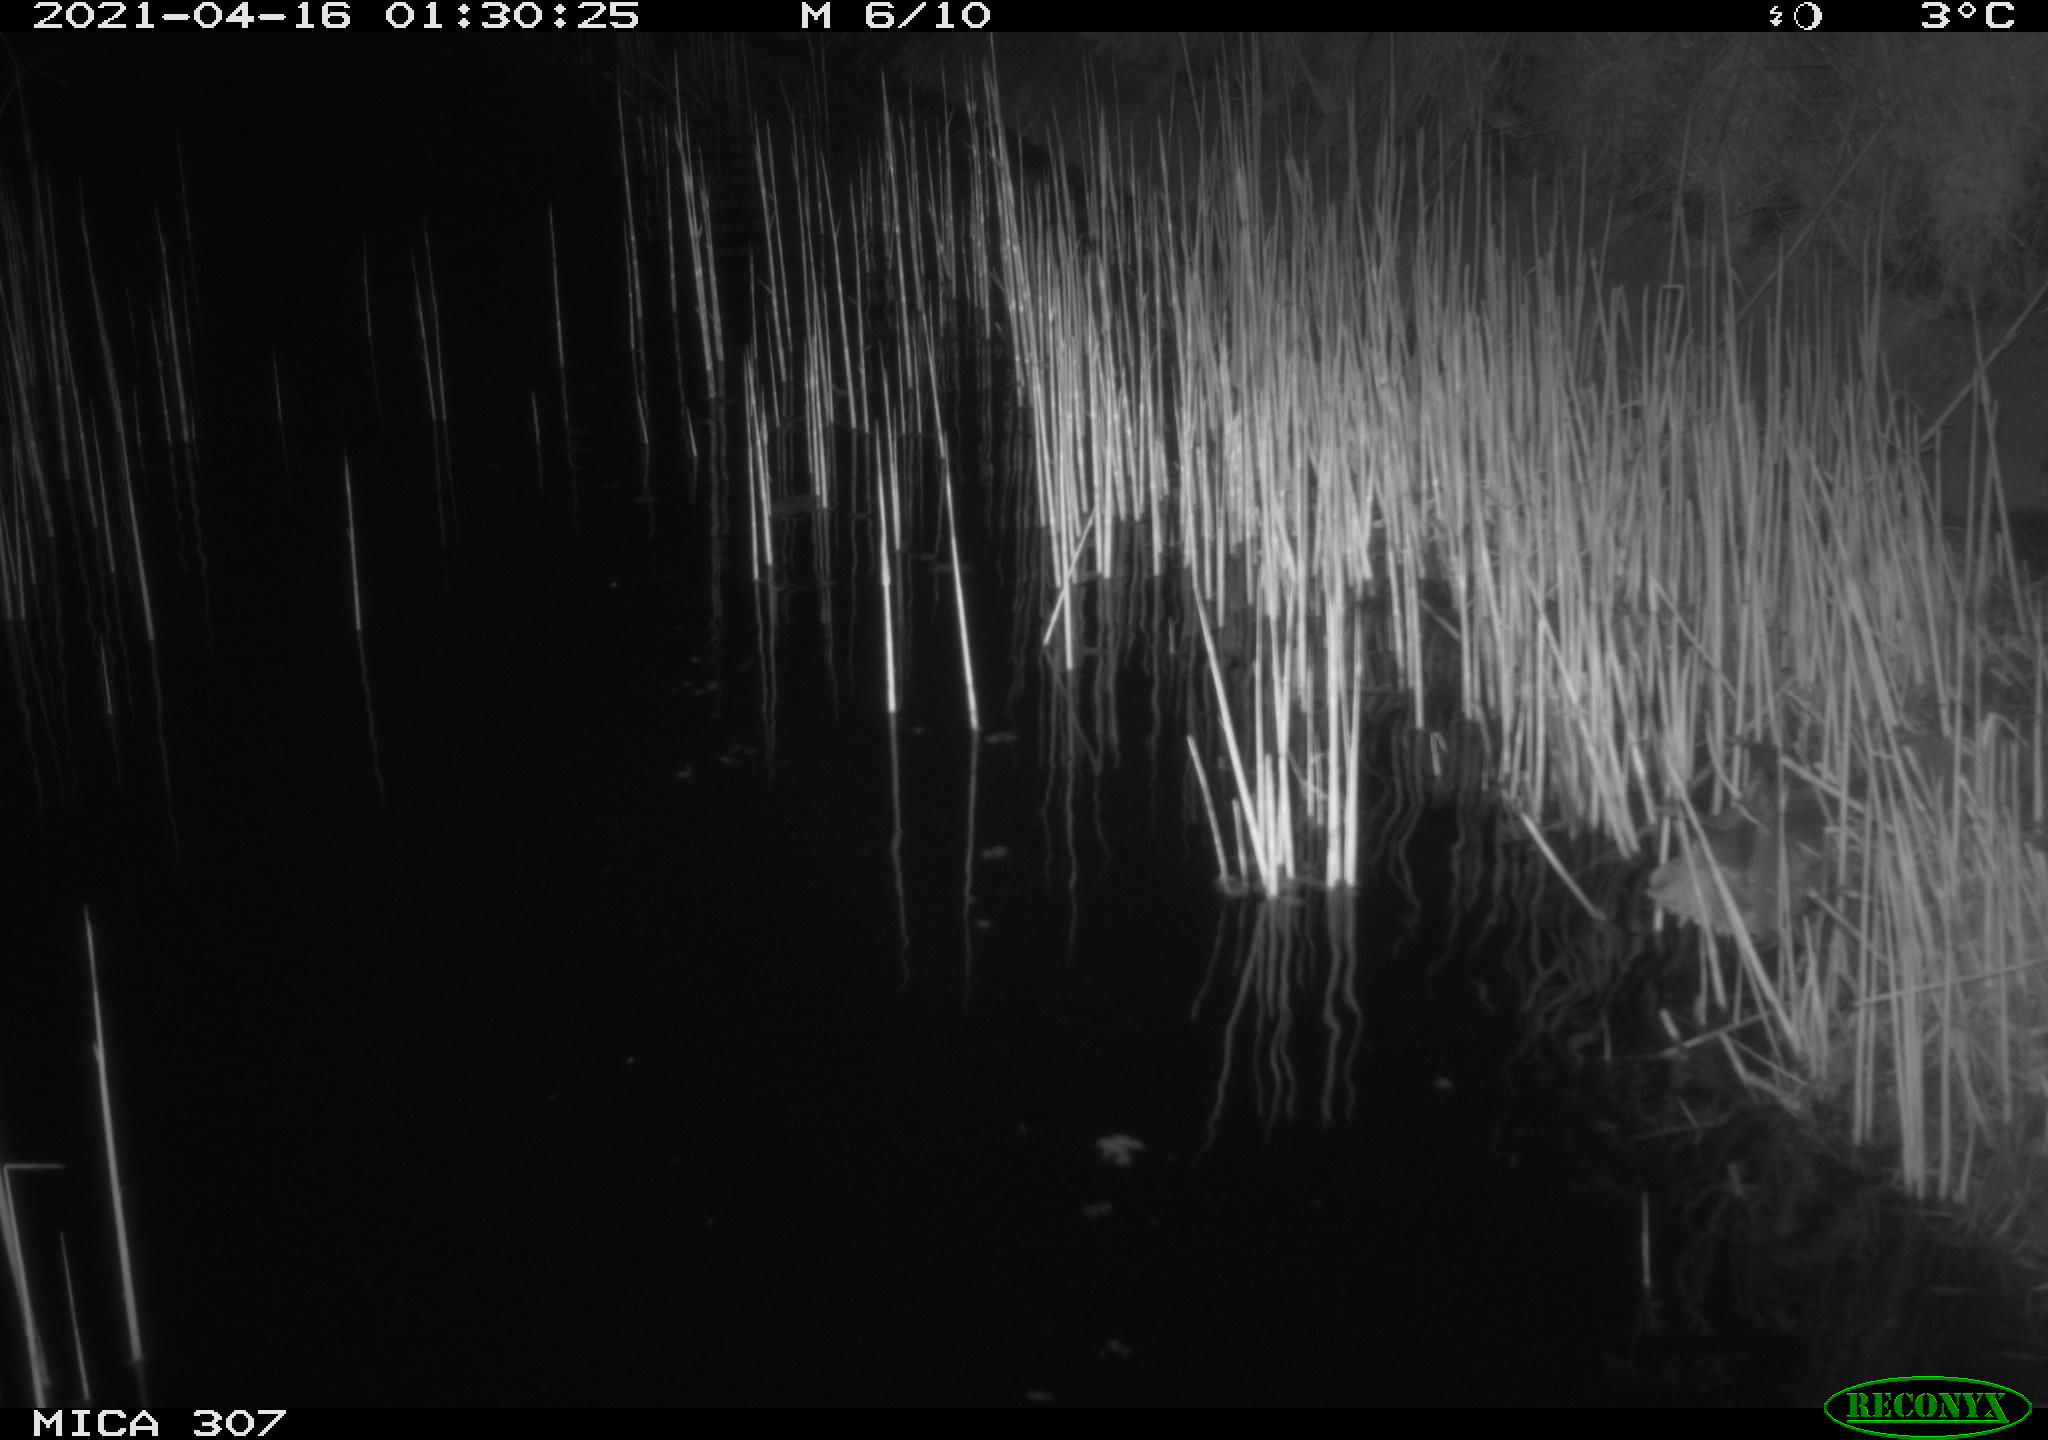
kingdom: Animalia
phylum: Chordata
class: Mammalia
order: Rodentia
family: Cricetidae
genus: Ondatra
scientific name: Ondatra zibethicus
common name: Muskrat
